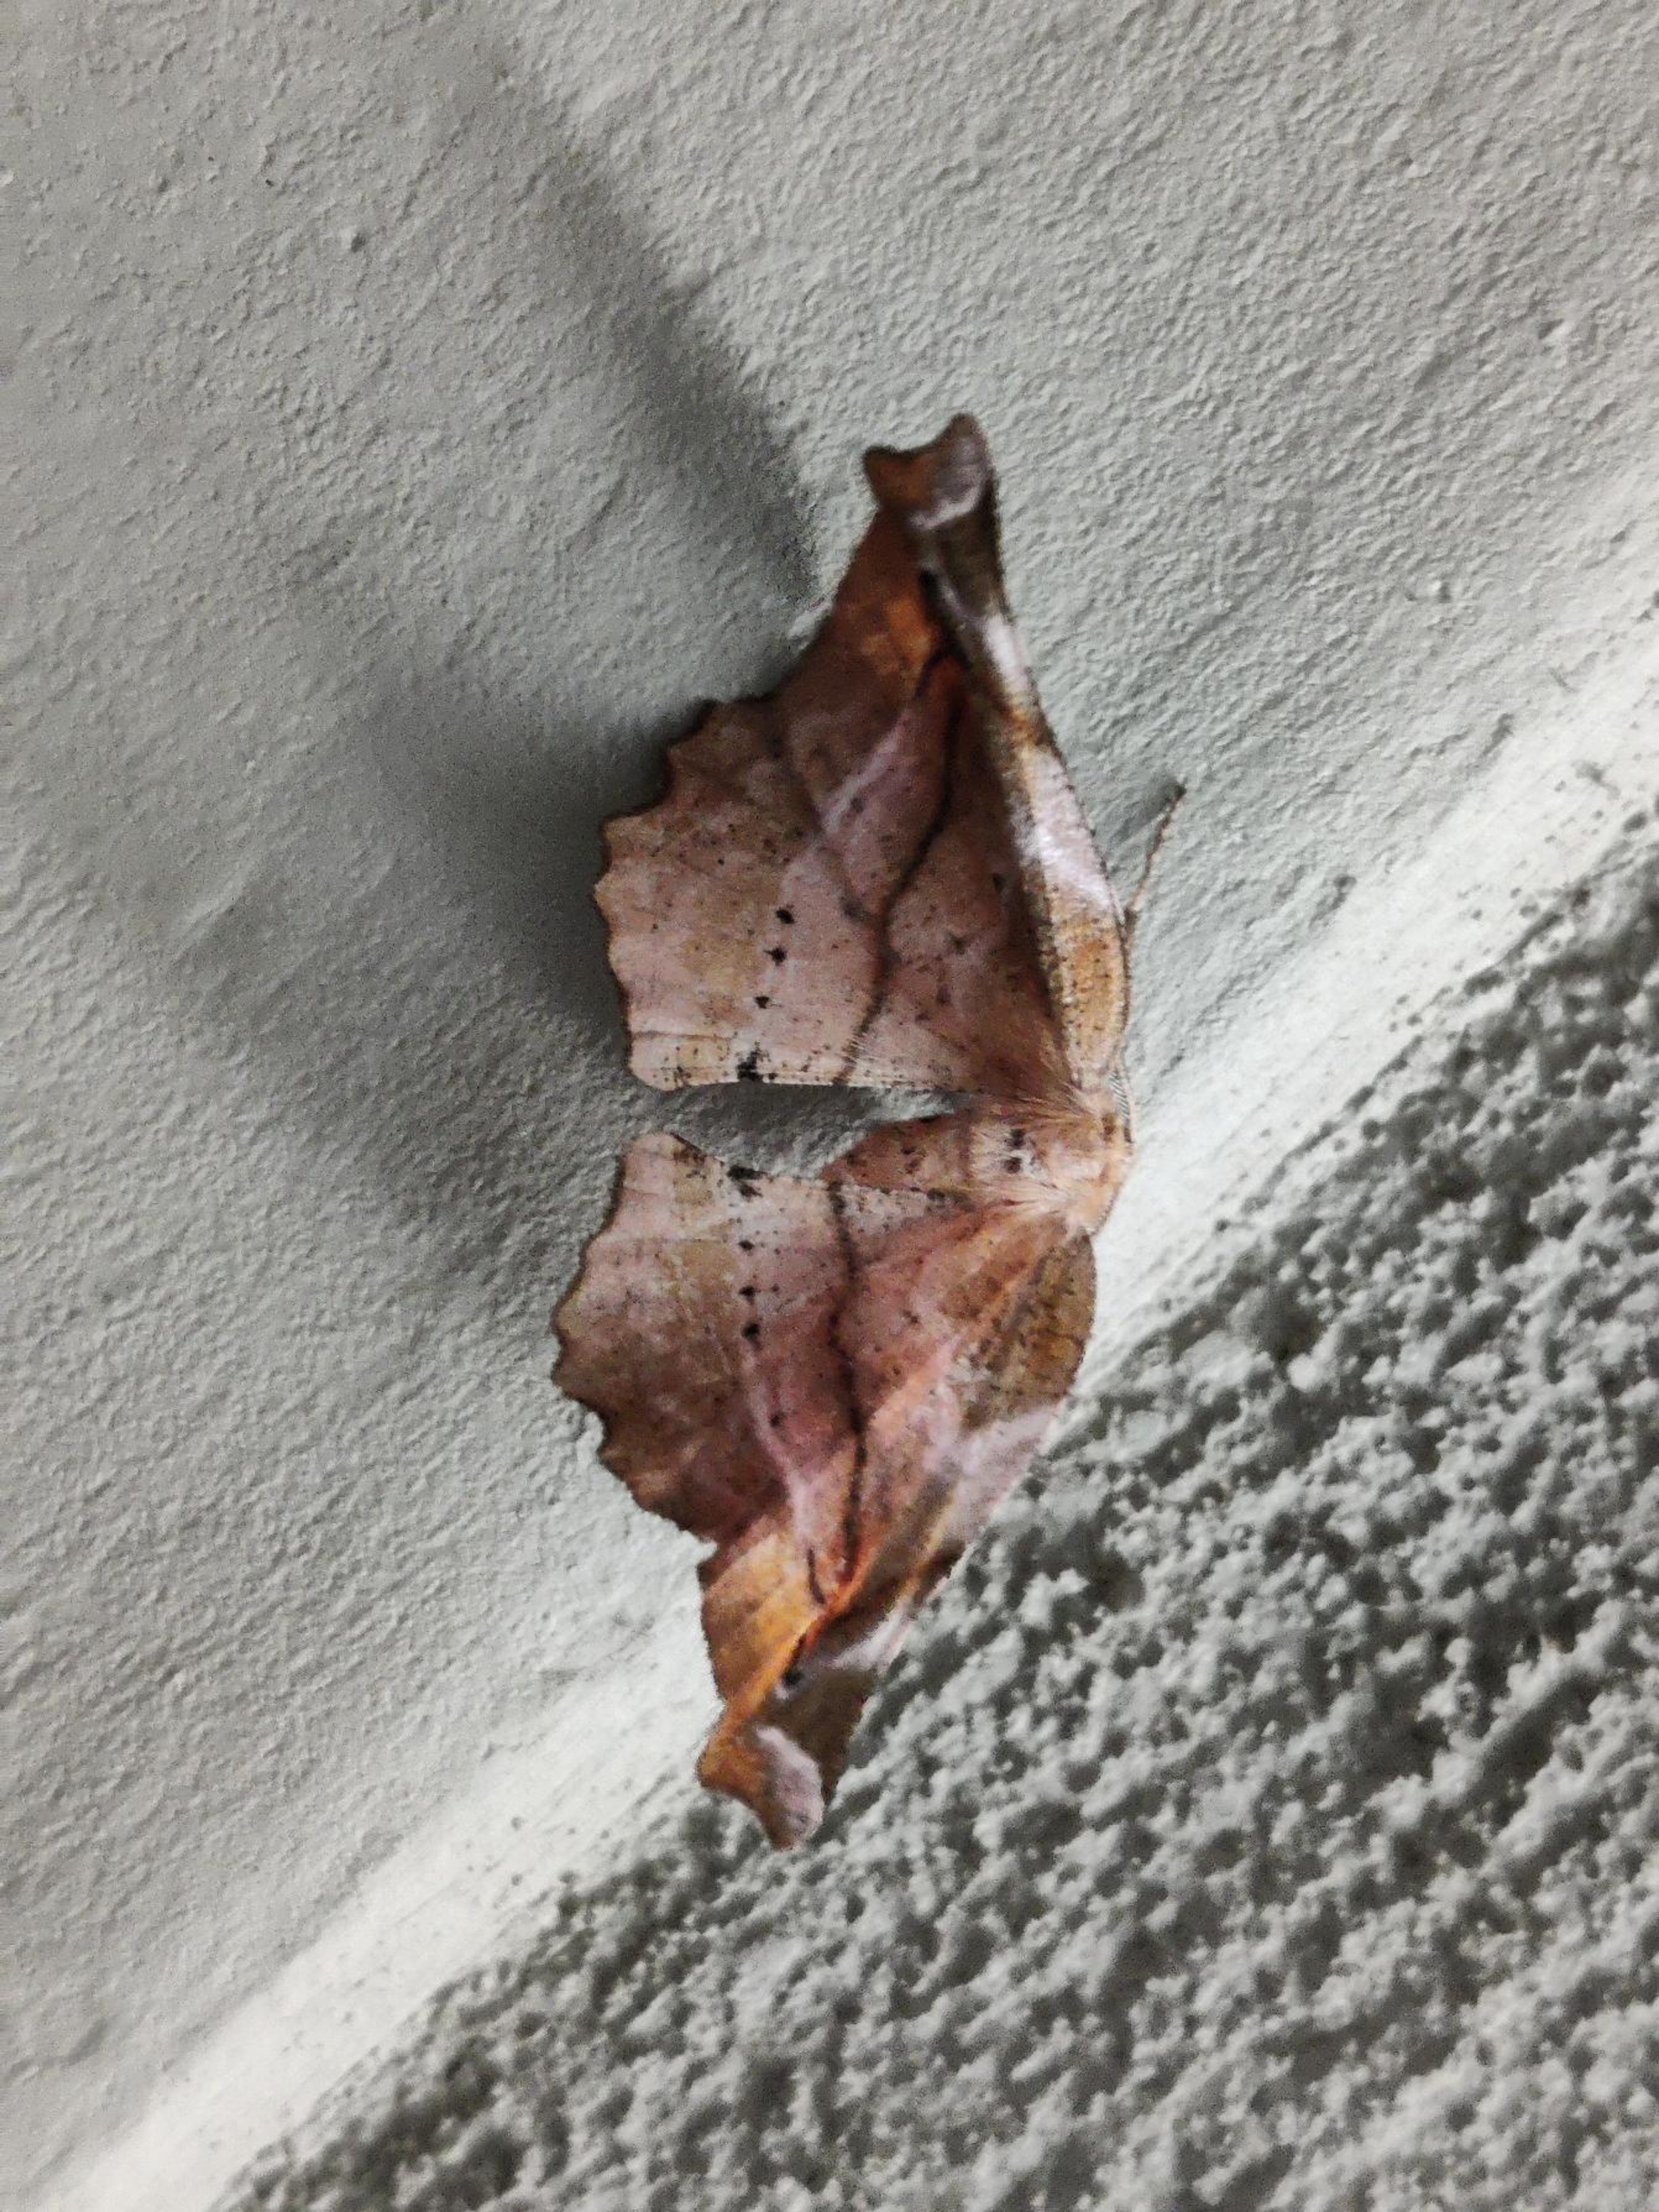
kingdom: Animalia
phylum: Arthropoda
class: Insecta
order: Lepidoptera
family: Geometridae
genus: Apeira
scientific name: Apeira syringaria
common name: Syrenmåler
